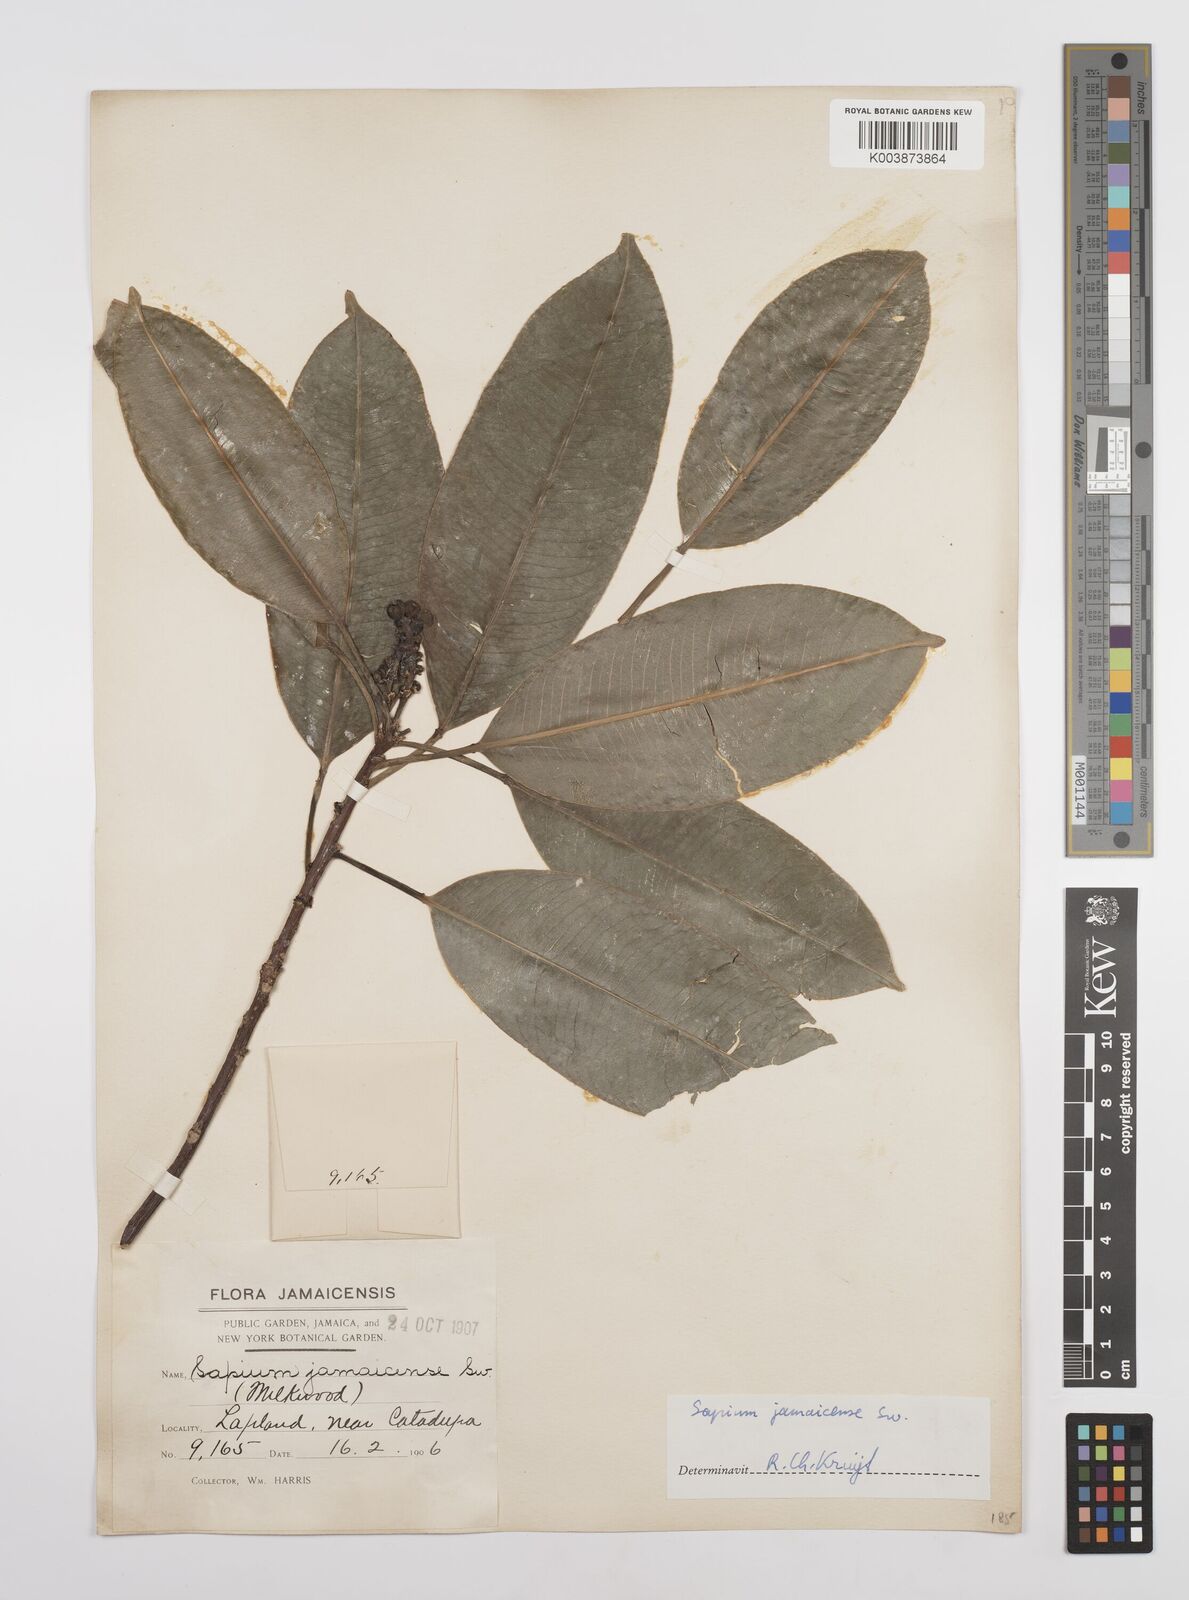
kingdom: Plantae
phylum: Tracheophyta
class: Magnoliopsida
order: Malpighiales
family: Euphorbiaceae
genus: Sapium
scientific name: Sapium glandulosum
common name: Milktree
